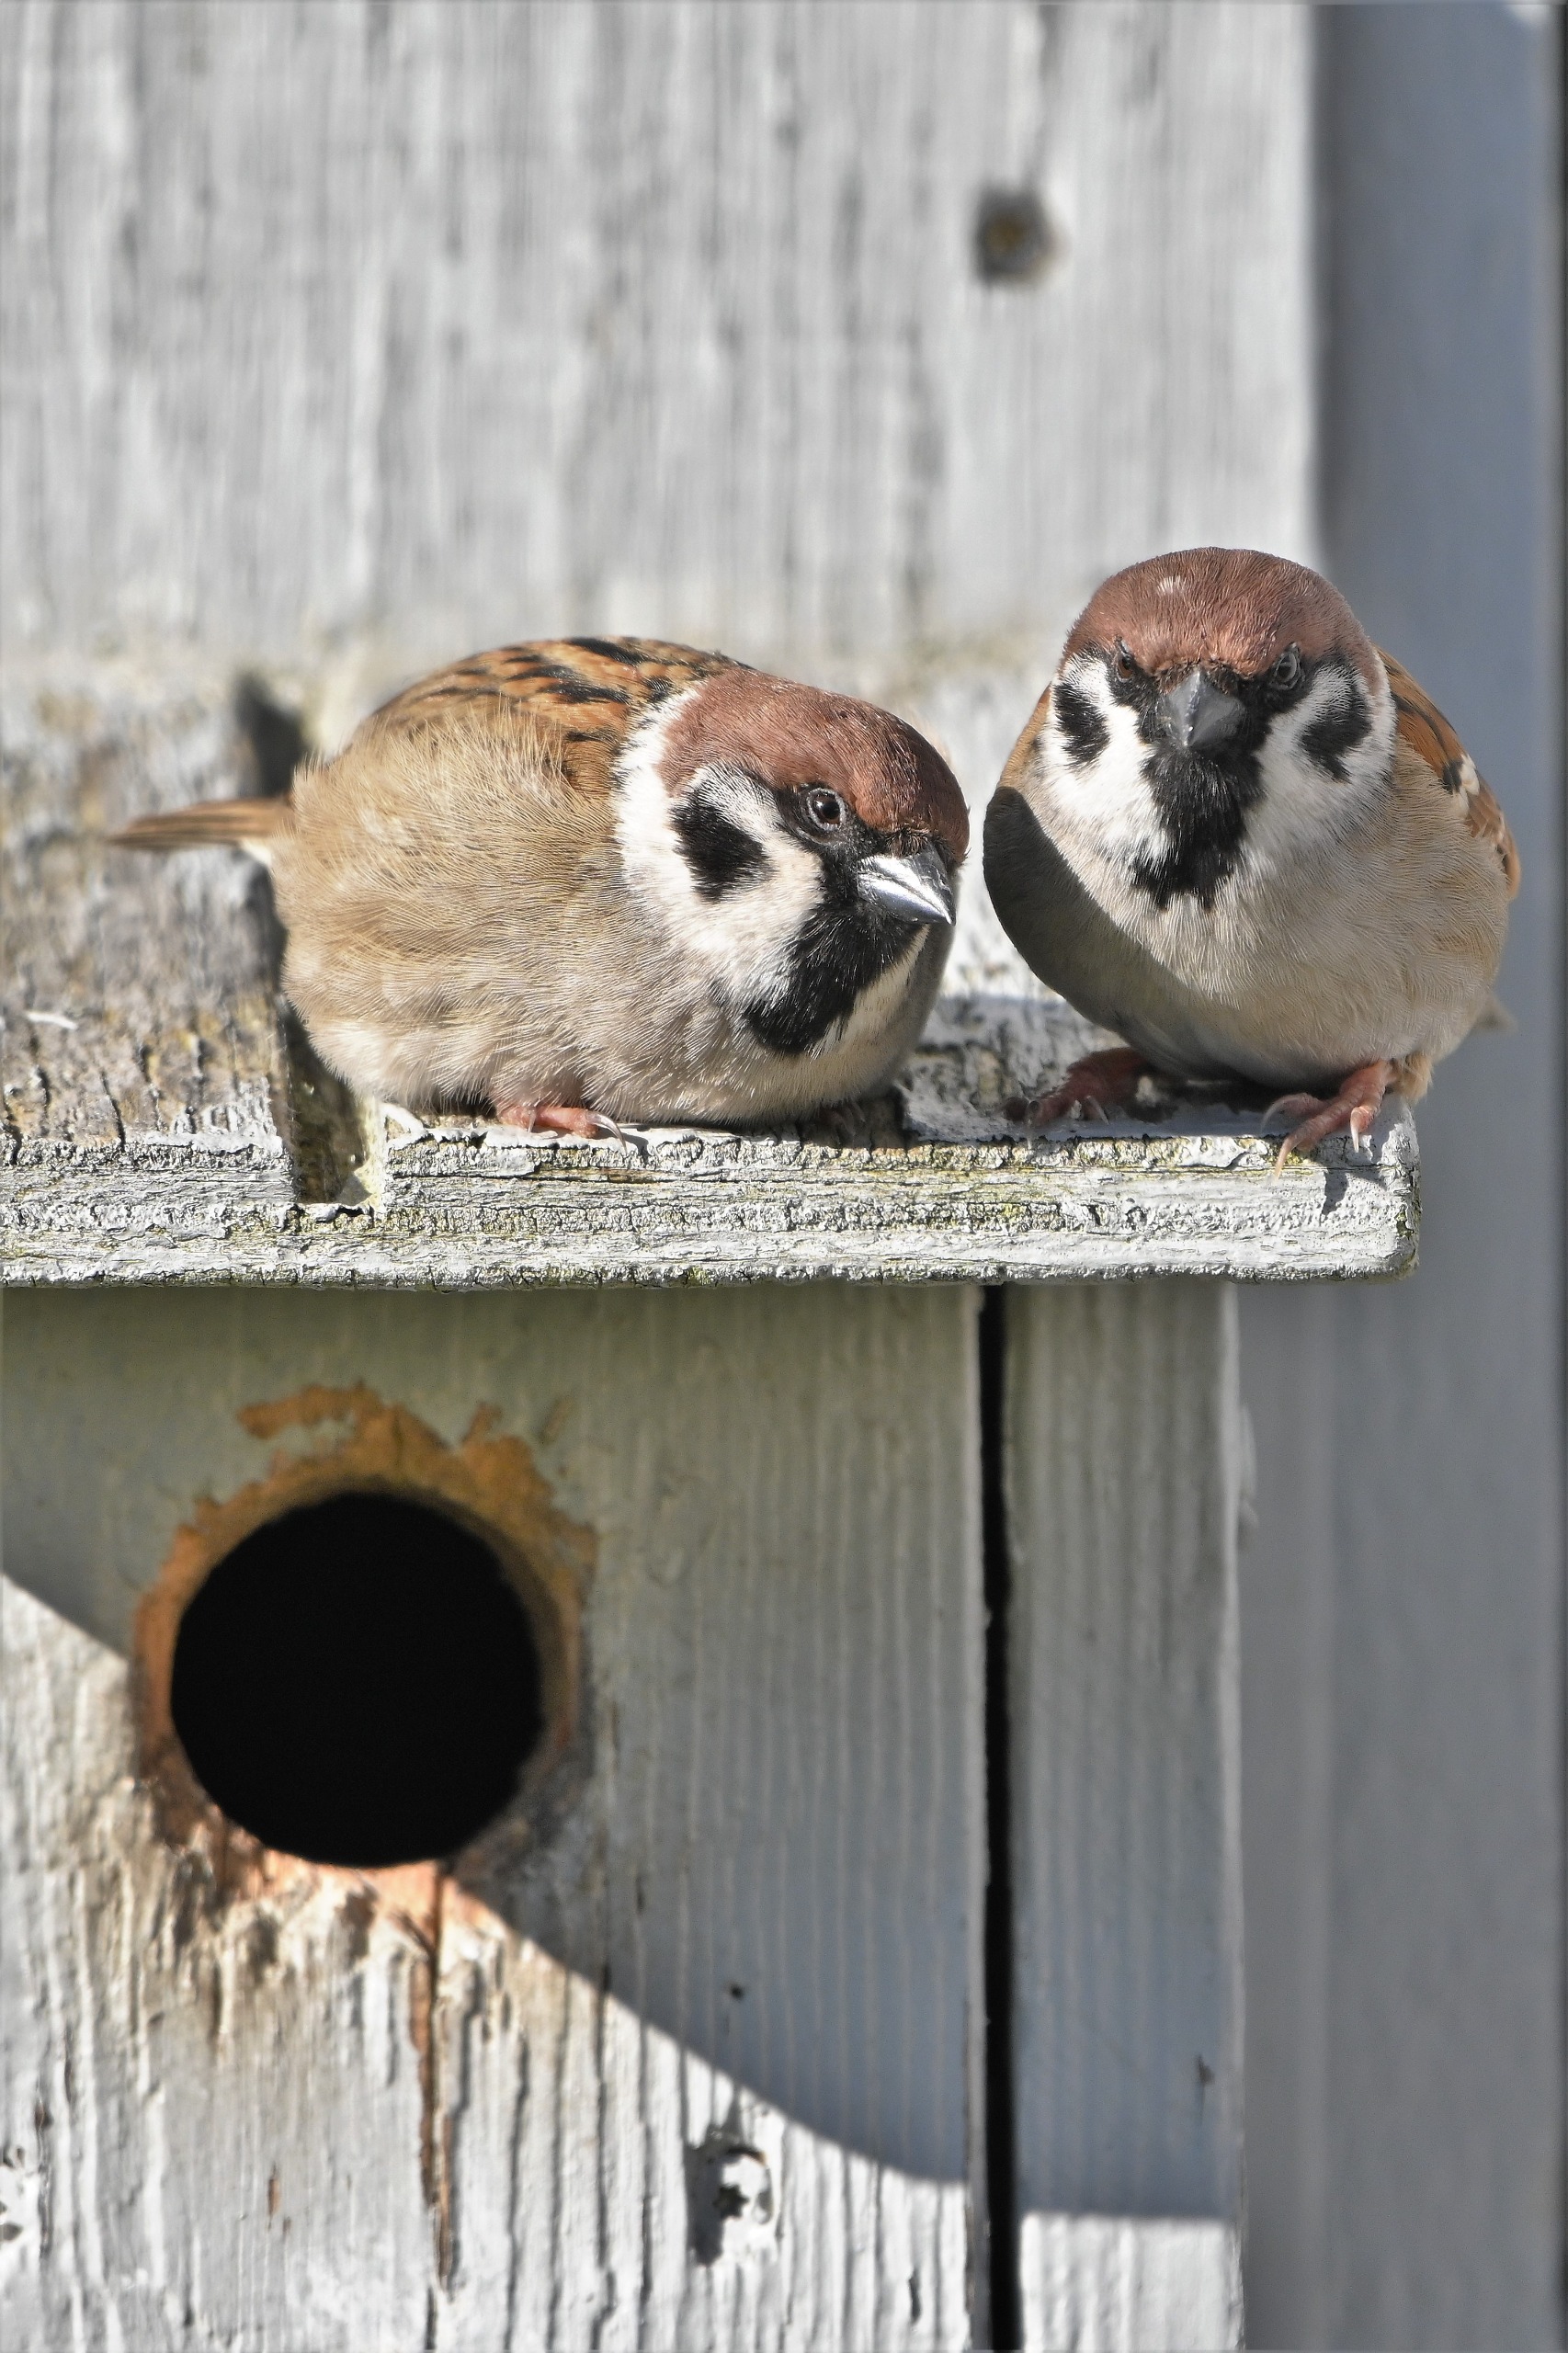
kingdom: Animalia
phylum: Chordata
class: Aves
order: Passeriformes
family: Passeridae
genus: Passer
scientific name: Passer montanus
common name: Skovspurv
